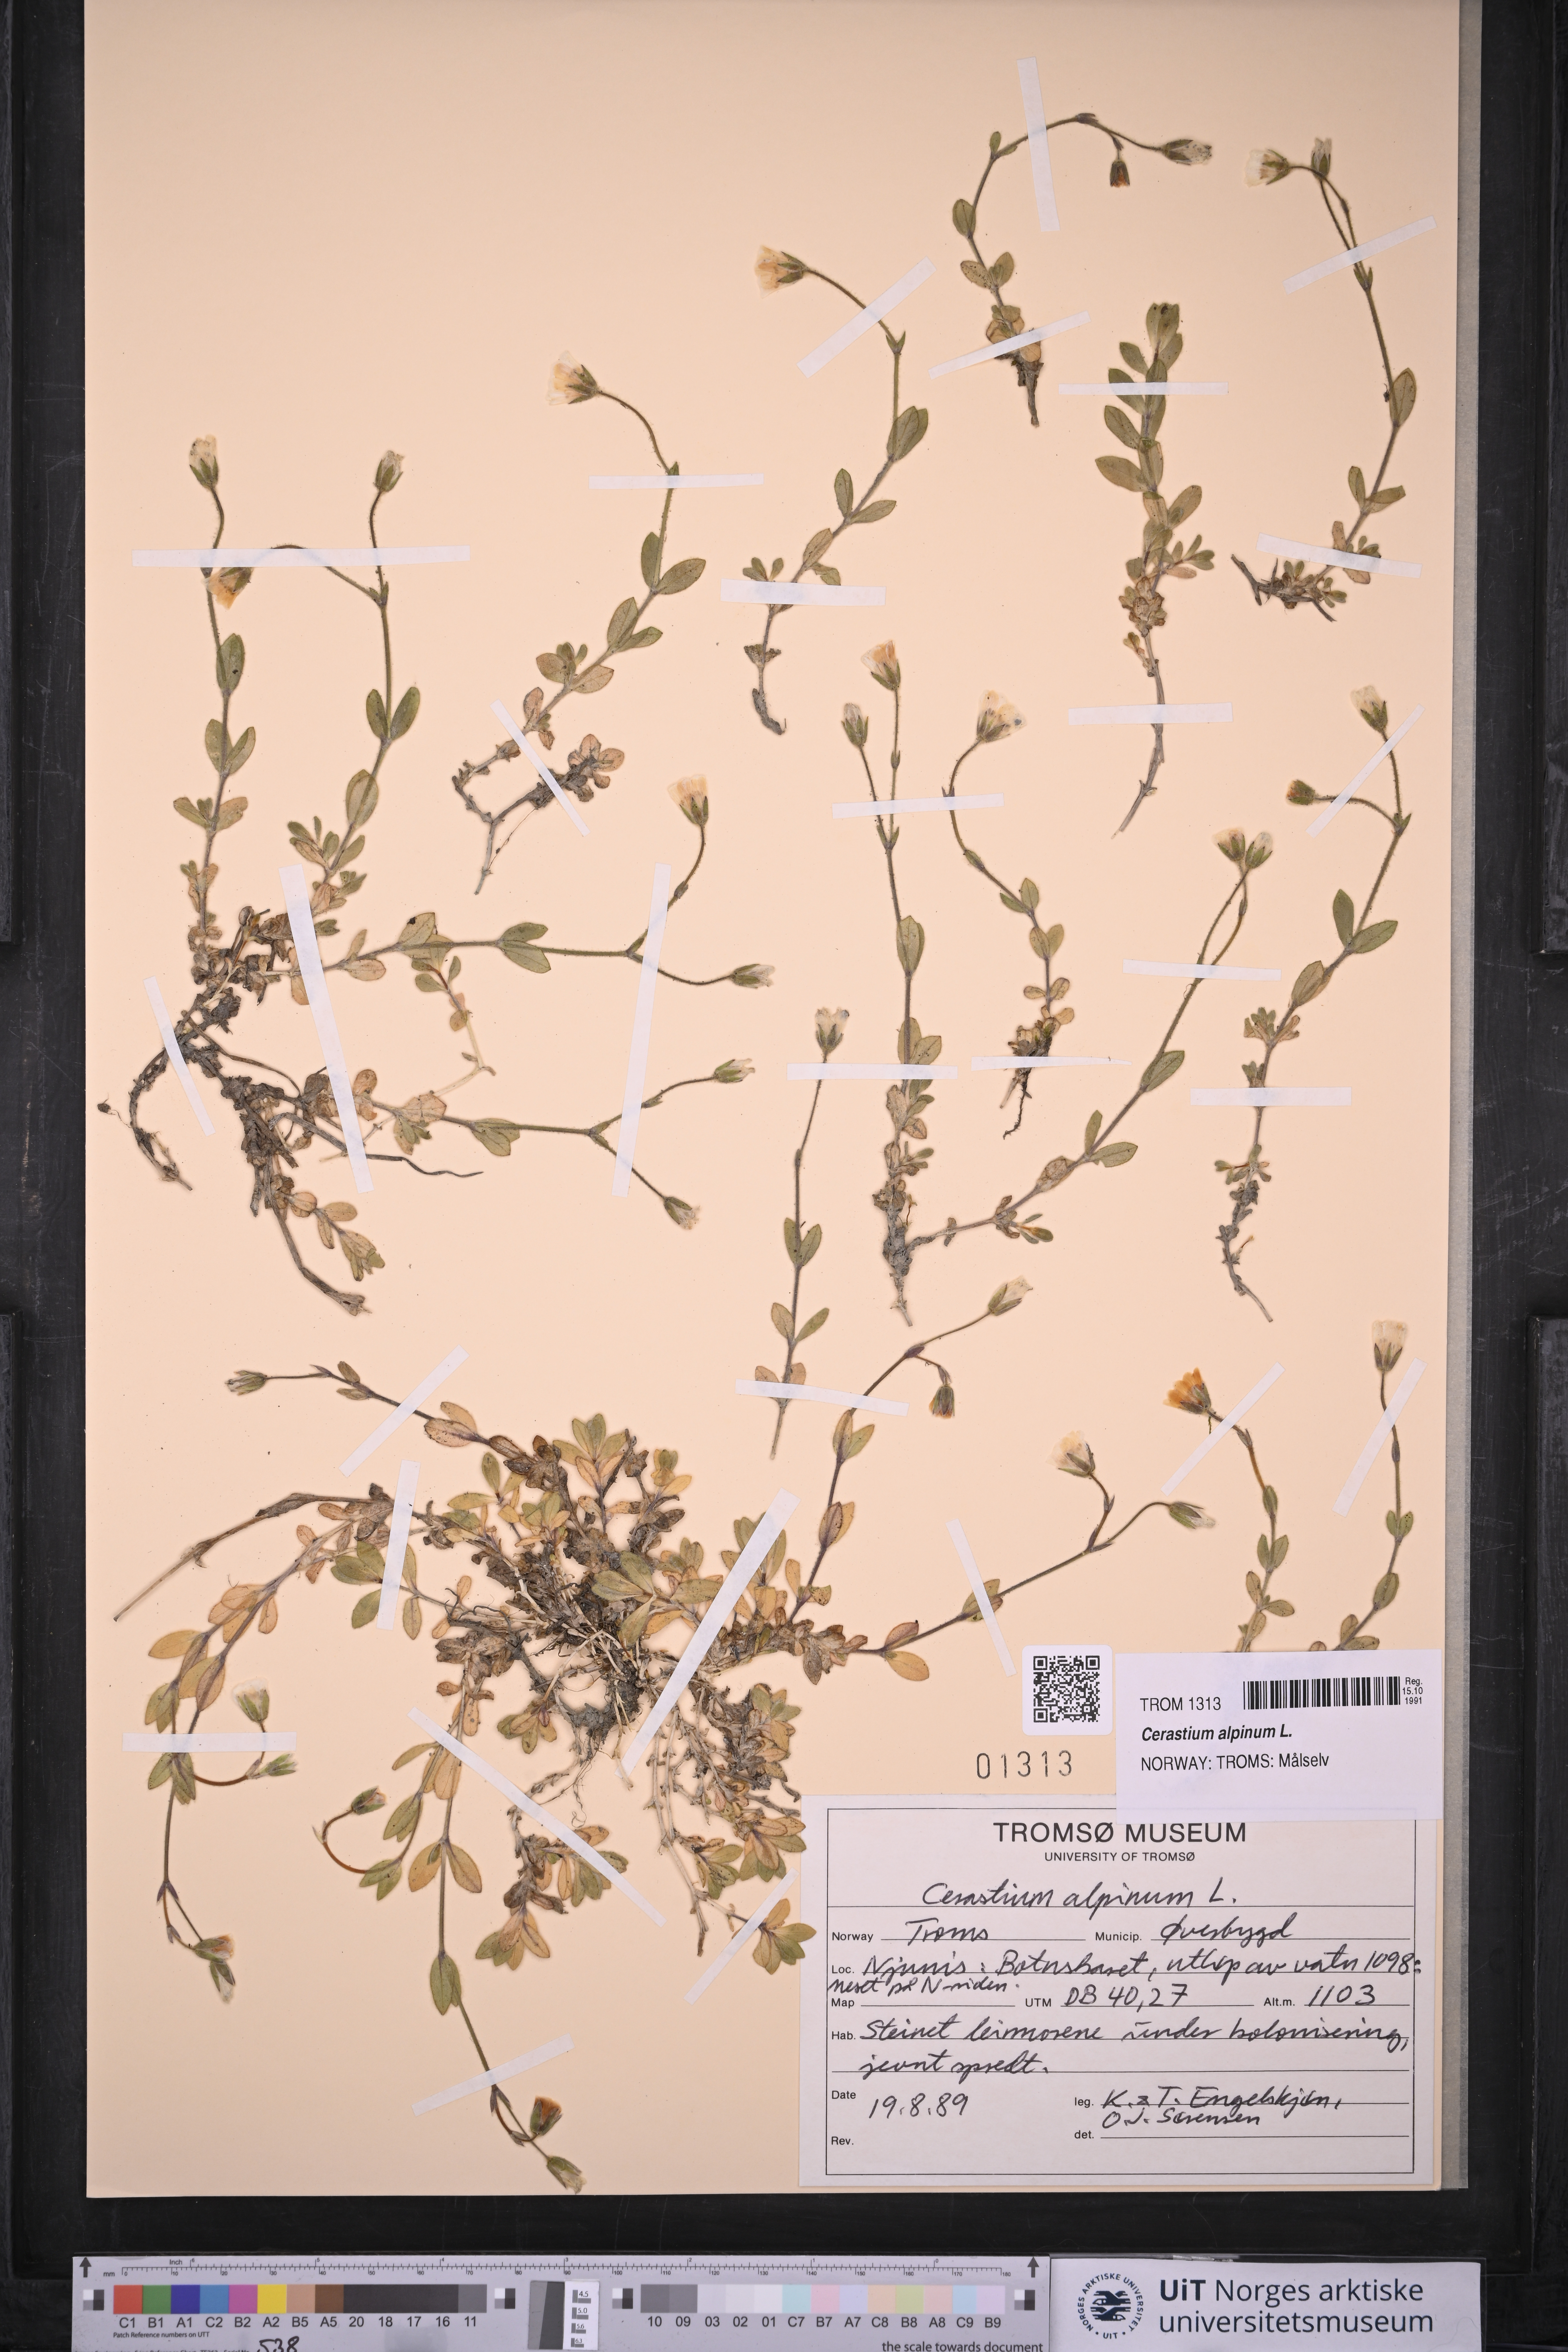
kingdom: Plantae
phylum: Tracheophyta
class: Magnoliopsida
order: Caryophyllales
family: Caryophyllaceae
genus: Cerastium
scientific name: Cerastium alpinum
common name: Alpine mouse-ear
